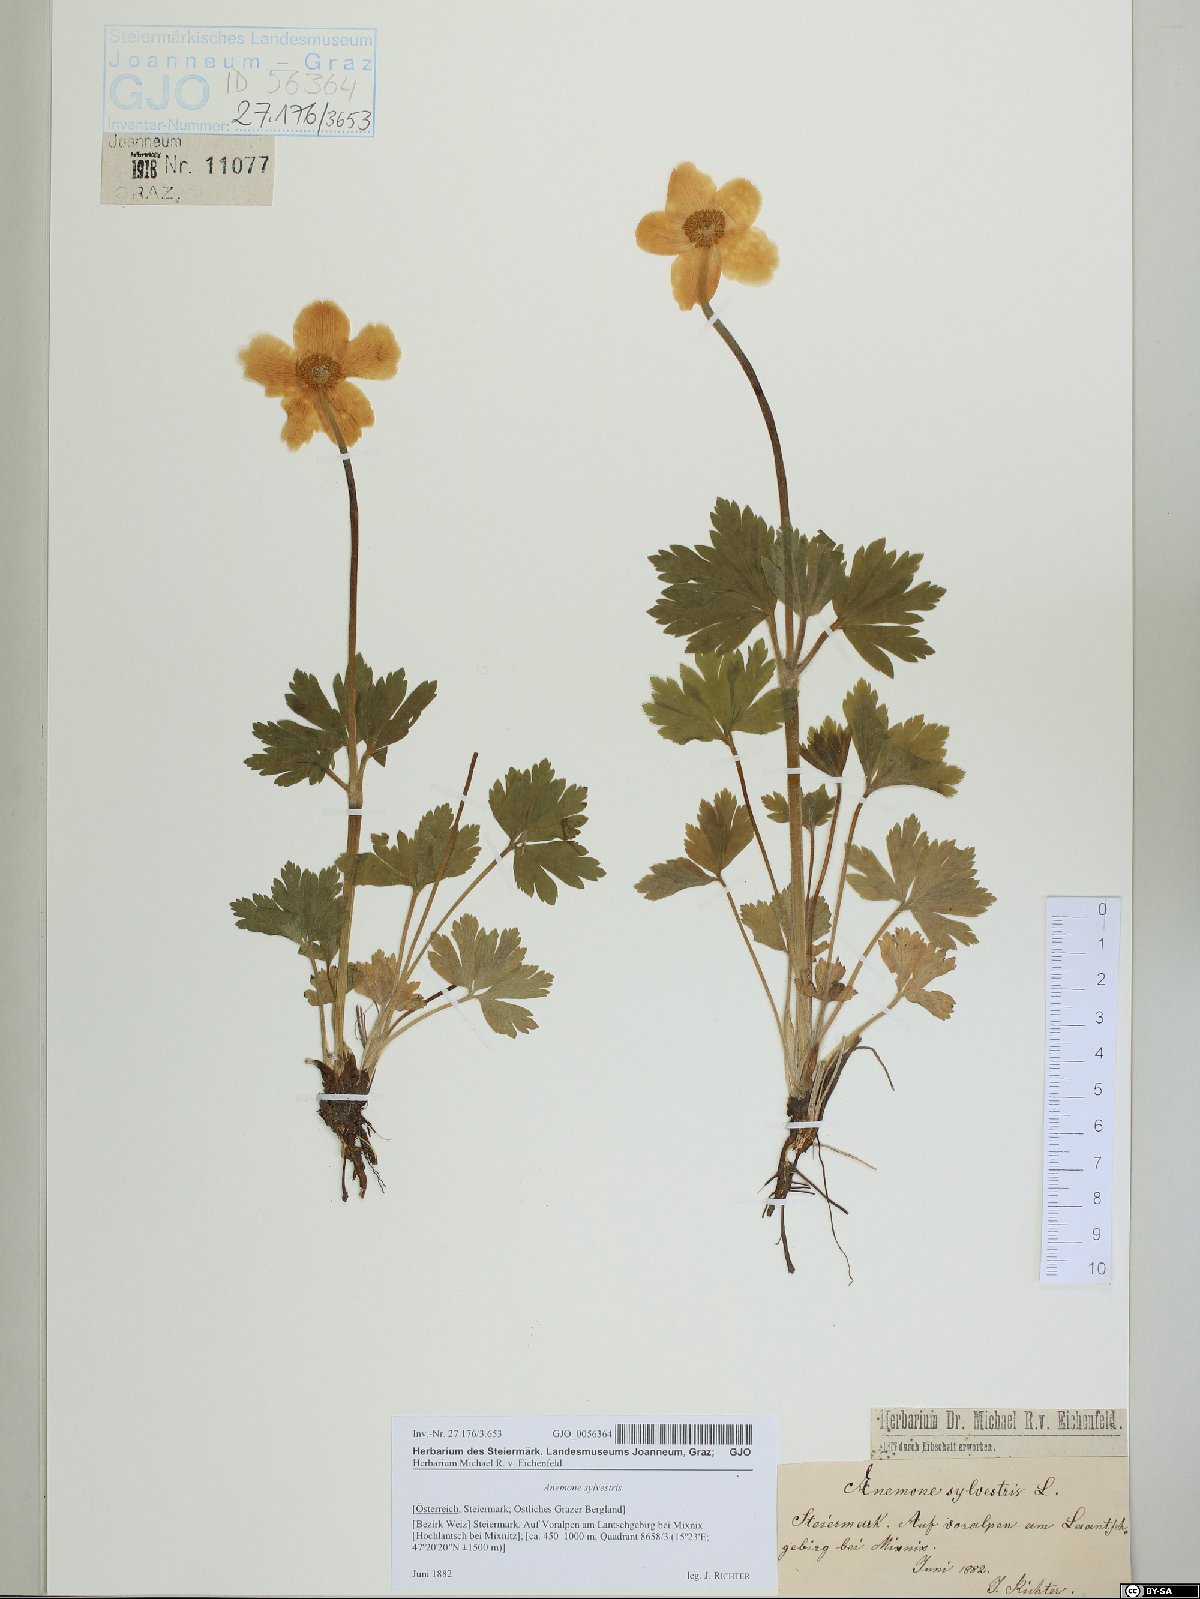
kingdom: Plantae
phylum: Tracheophyta
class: Magnoliopsida
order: Ranunculales
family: Ranunculaceae
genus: Anemone
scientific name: Anemone sylvestris
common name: Snowdrop anemone
